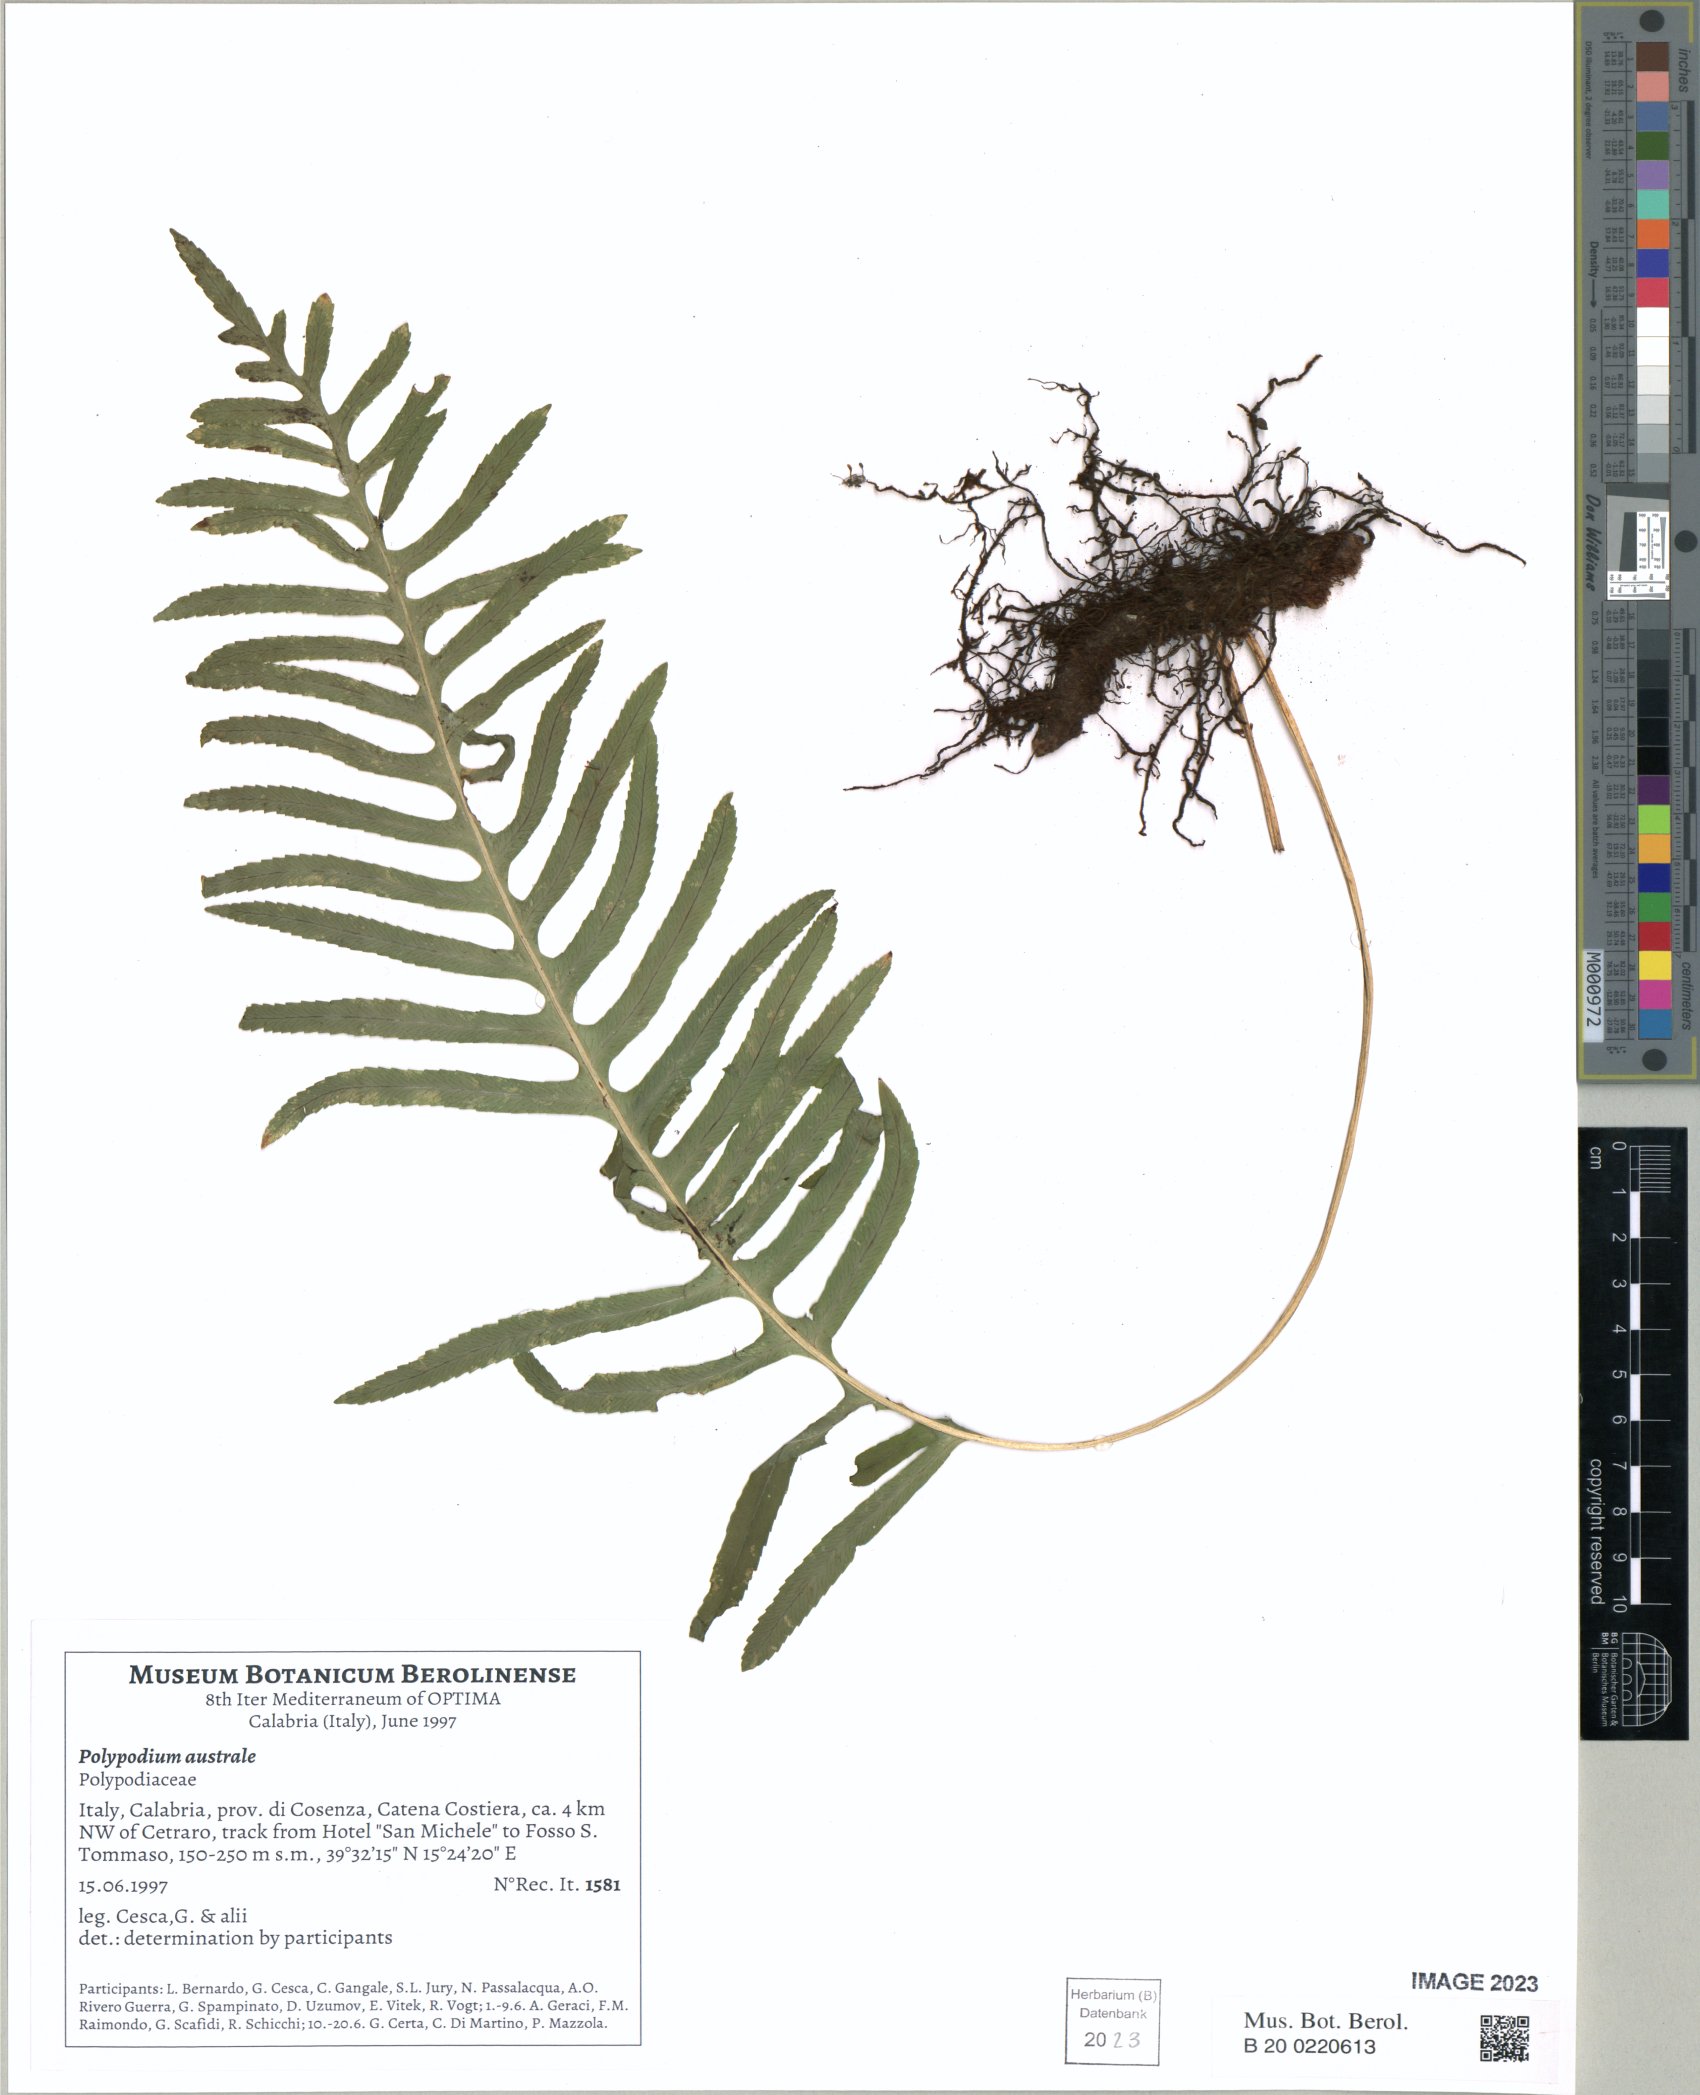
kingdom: Plantae
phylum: Tracheophyta
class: Polypodiopsida
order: Polypodiales
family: Polypodiaceae
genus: Polypodium
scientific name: Polypodium cambricum
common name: Southern polypody
